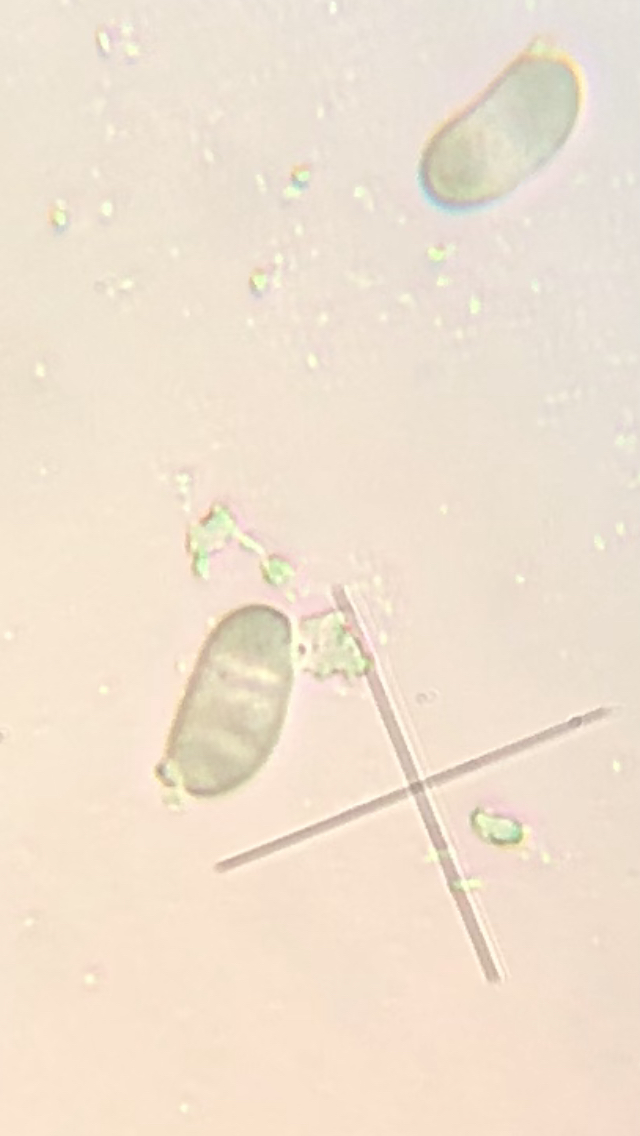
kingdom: Fungi
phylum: Basidiomycota
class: Dacrymycetes
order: Dacrymycetales
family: Dacrymycetaceae
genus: Calocera
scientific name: Calocera furcata
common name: fyrre-guldgaffel
